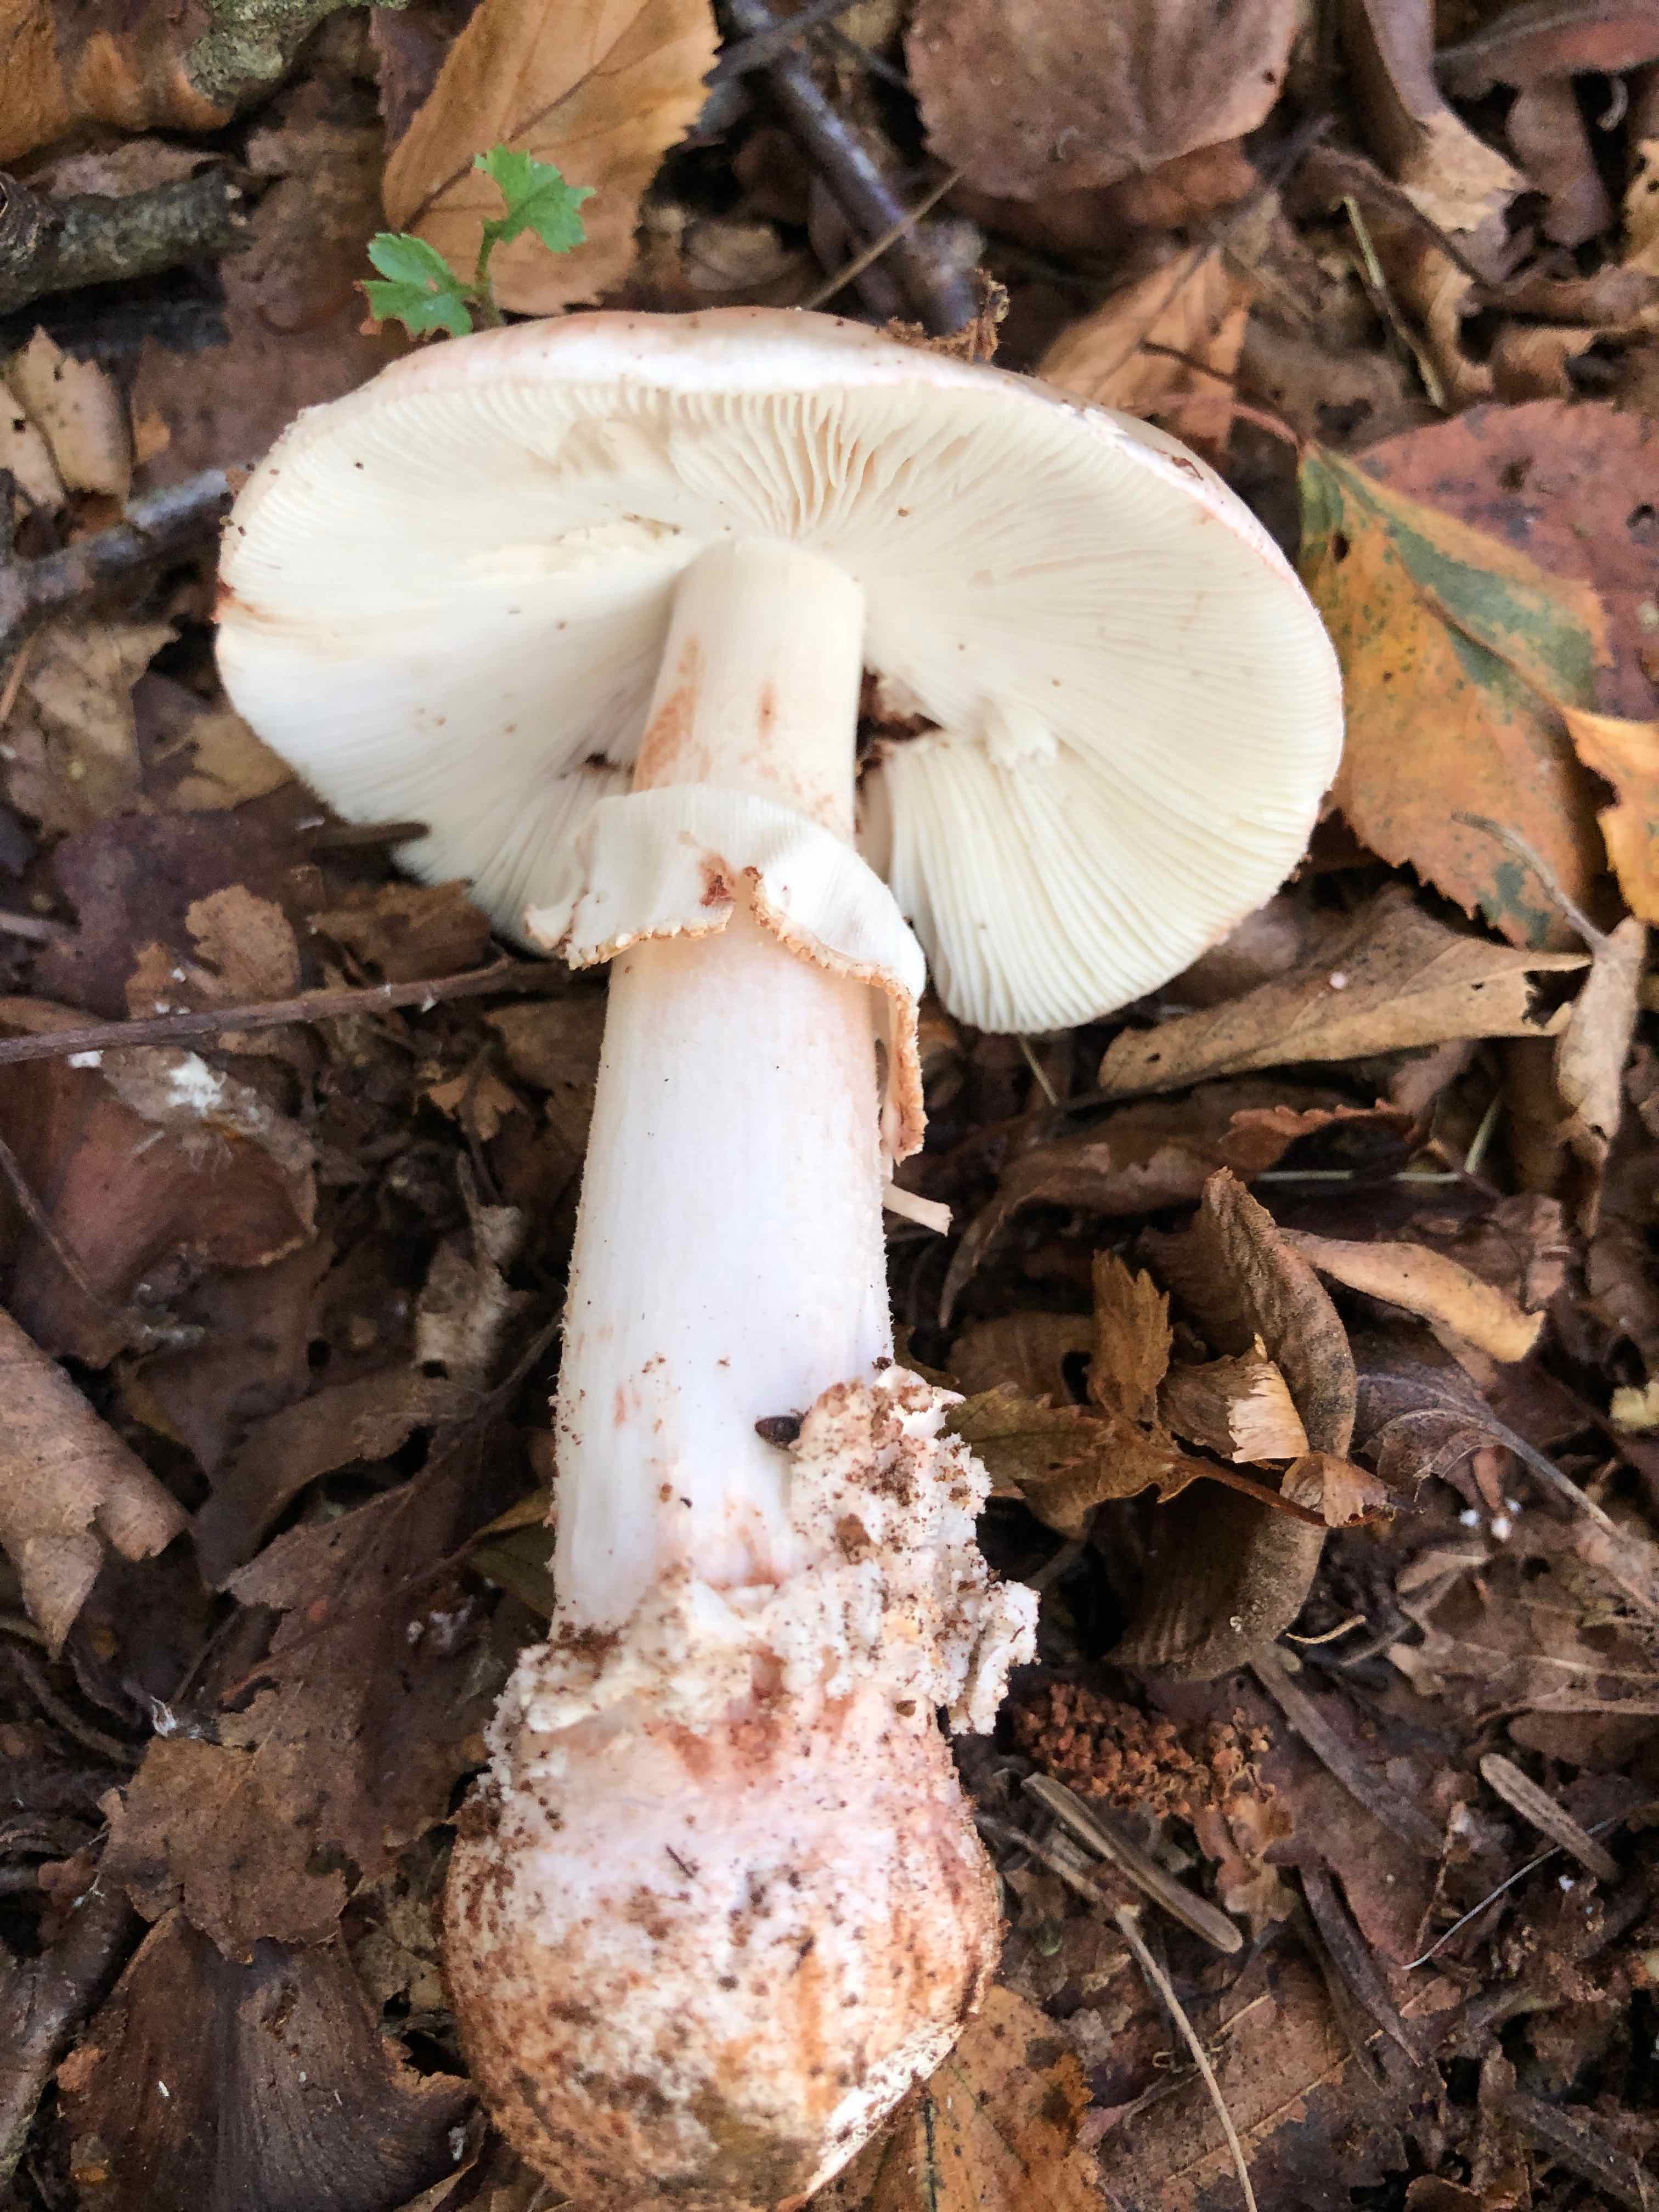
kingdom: Fungi
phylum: Basidiomycota
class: Agaricomycetes
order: Agaricales
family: Amanitaceae
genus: Amanita
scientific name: Amanita rubescens
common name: rødmende fluesvamp
